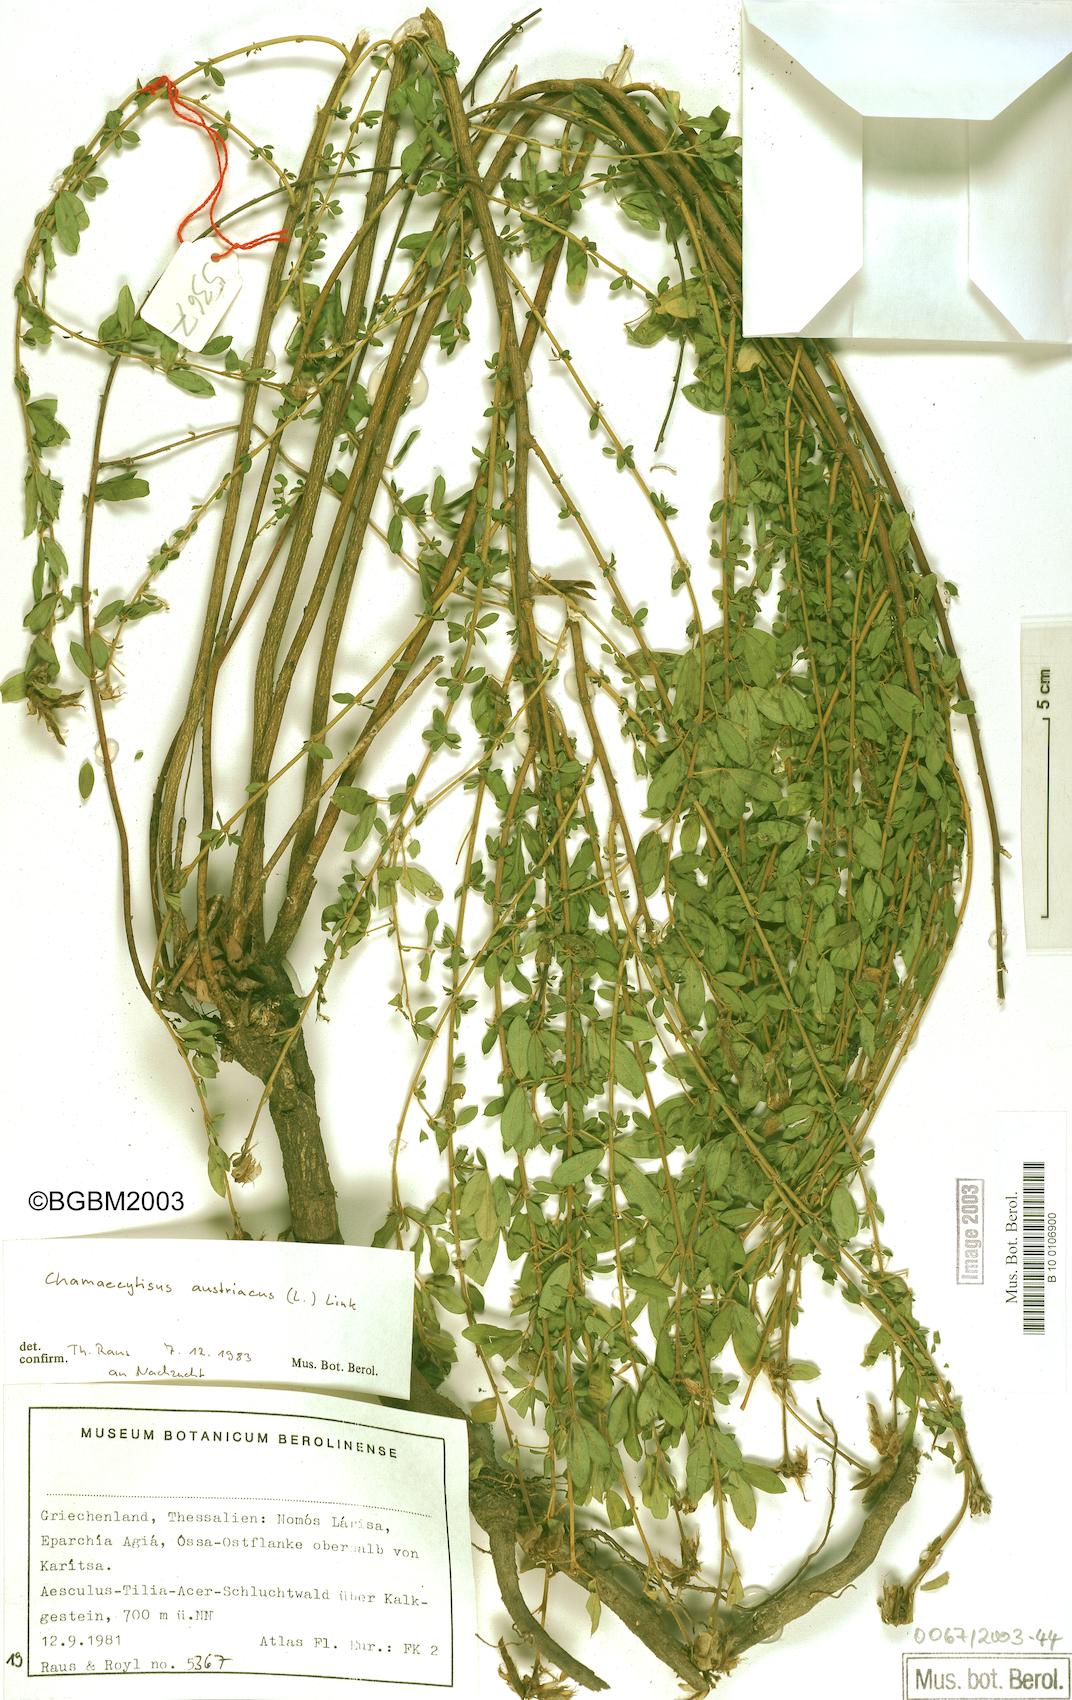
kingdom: Plantae
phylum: Tracheophyta
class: Magnoliopsida
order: Fabales
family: Fabaceae
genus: Chamaecytisus
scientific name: Chamaecytisus austriacus
